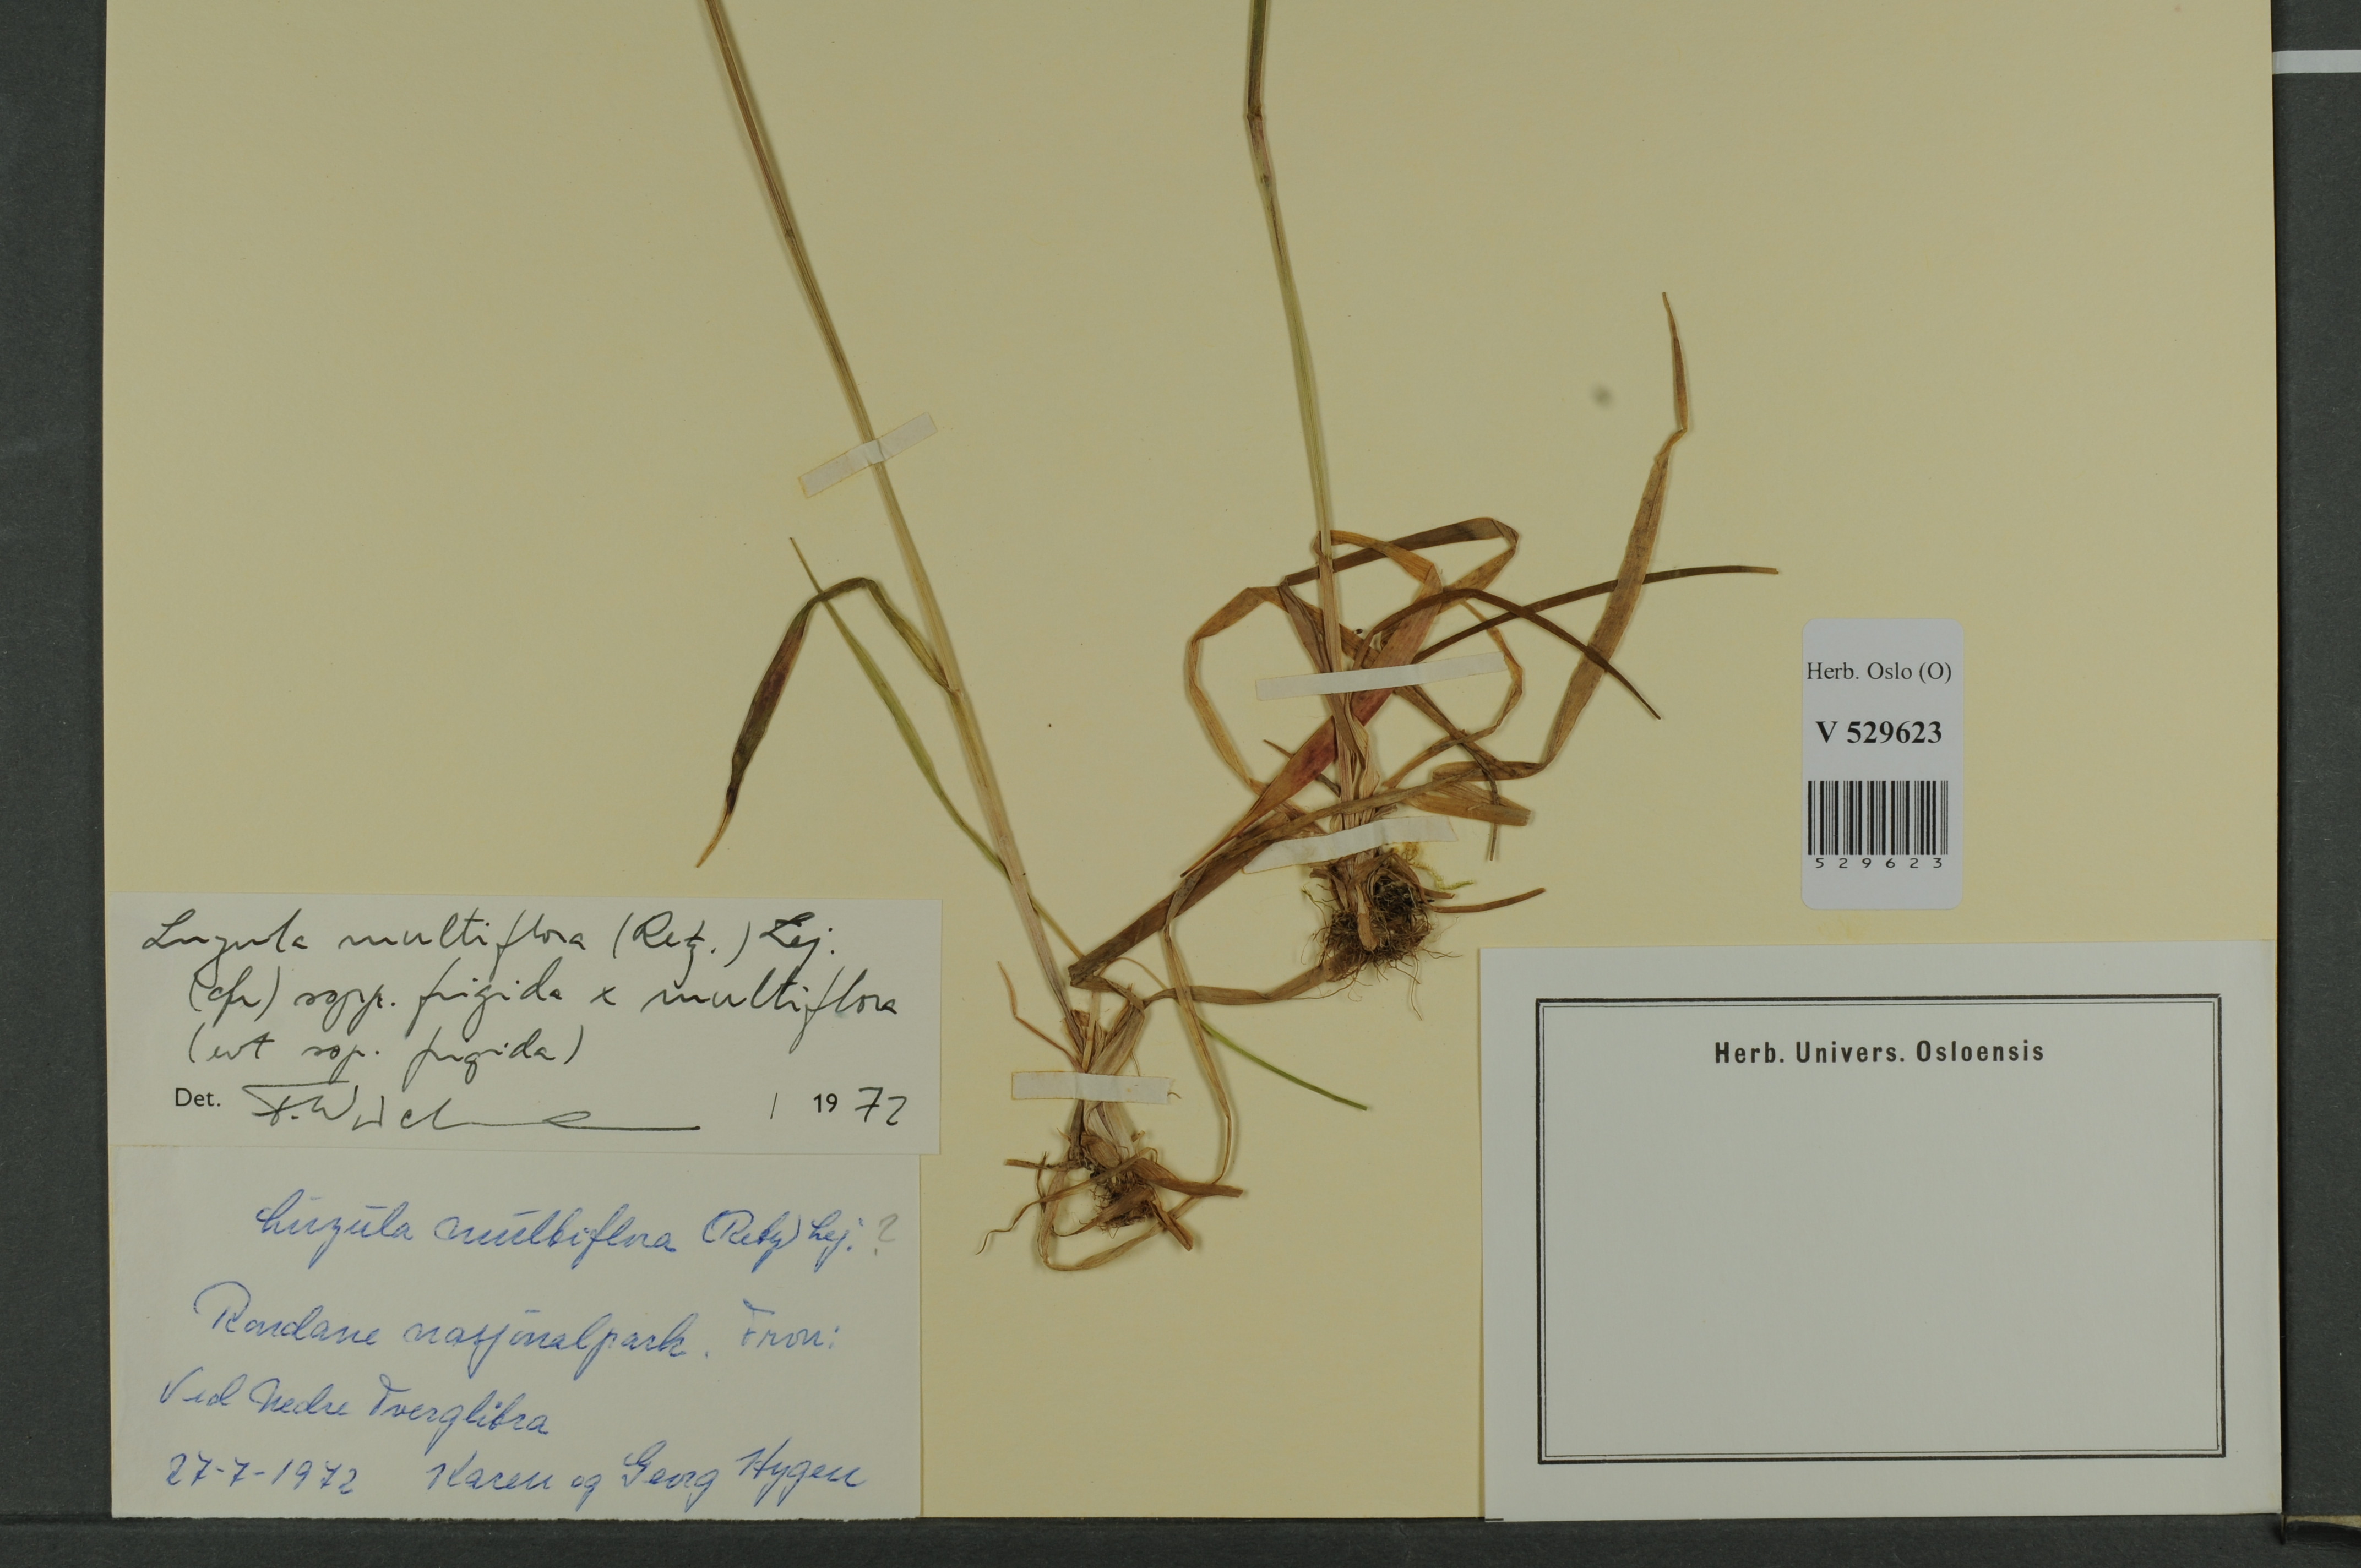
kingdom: Plantae
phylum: Tracheophyta
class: Liliopsida
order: Poales
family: Juncaceae
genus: Luzula
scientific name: Luzula
